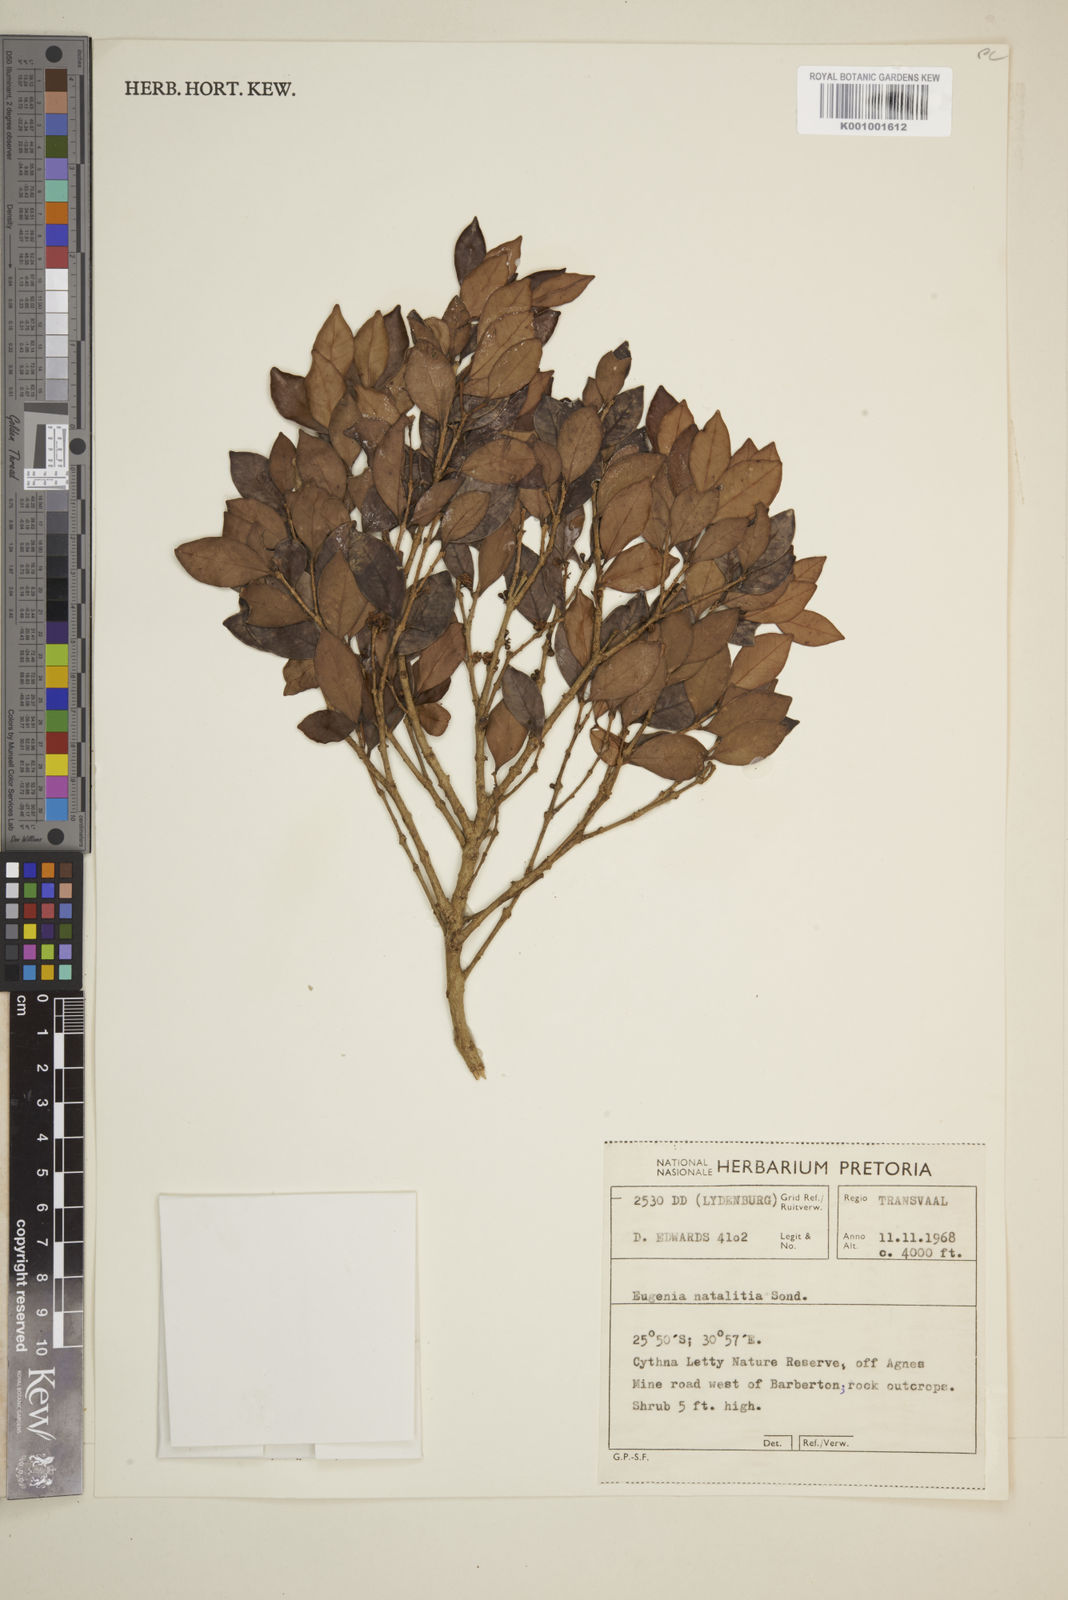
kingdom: Plantae
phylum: Tracheophyta
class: Magnoliopsida
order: Myrtales
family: Myrtaceae
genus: Eugenia
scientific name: Eugenia natalitia
